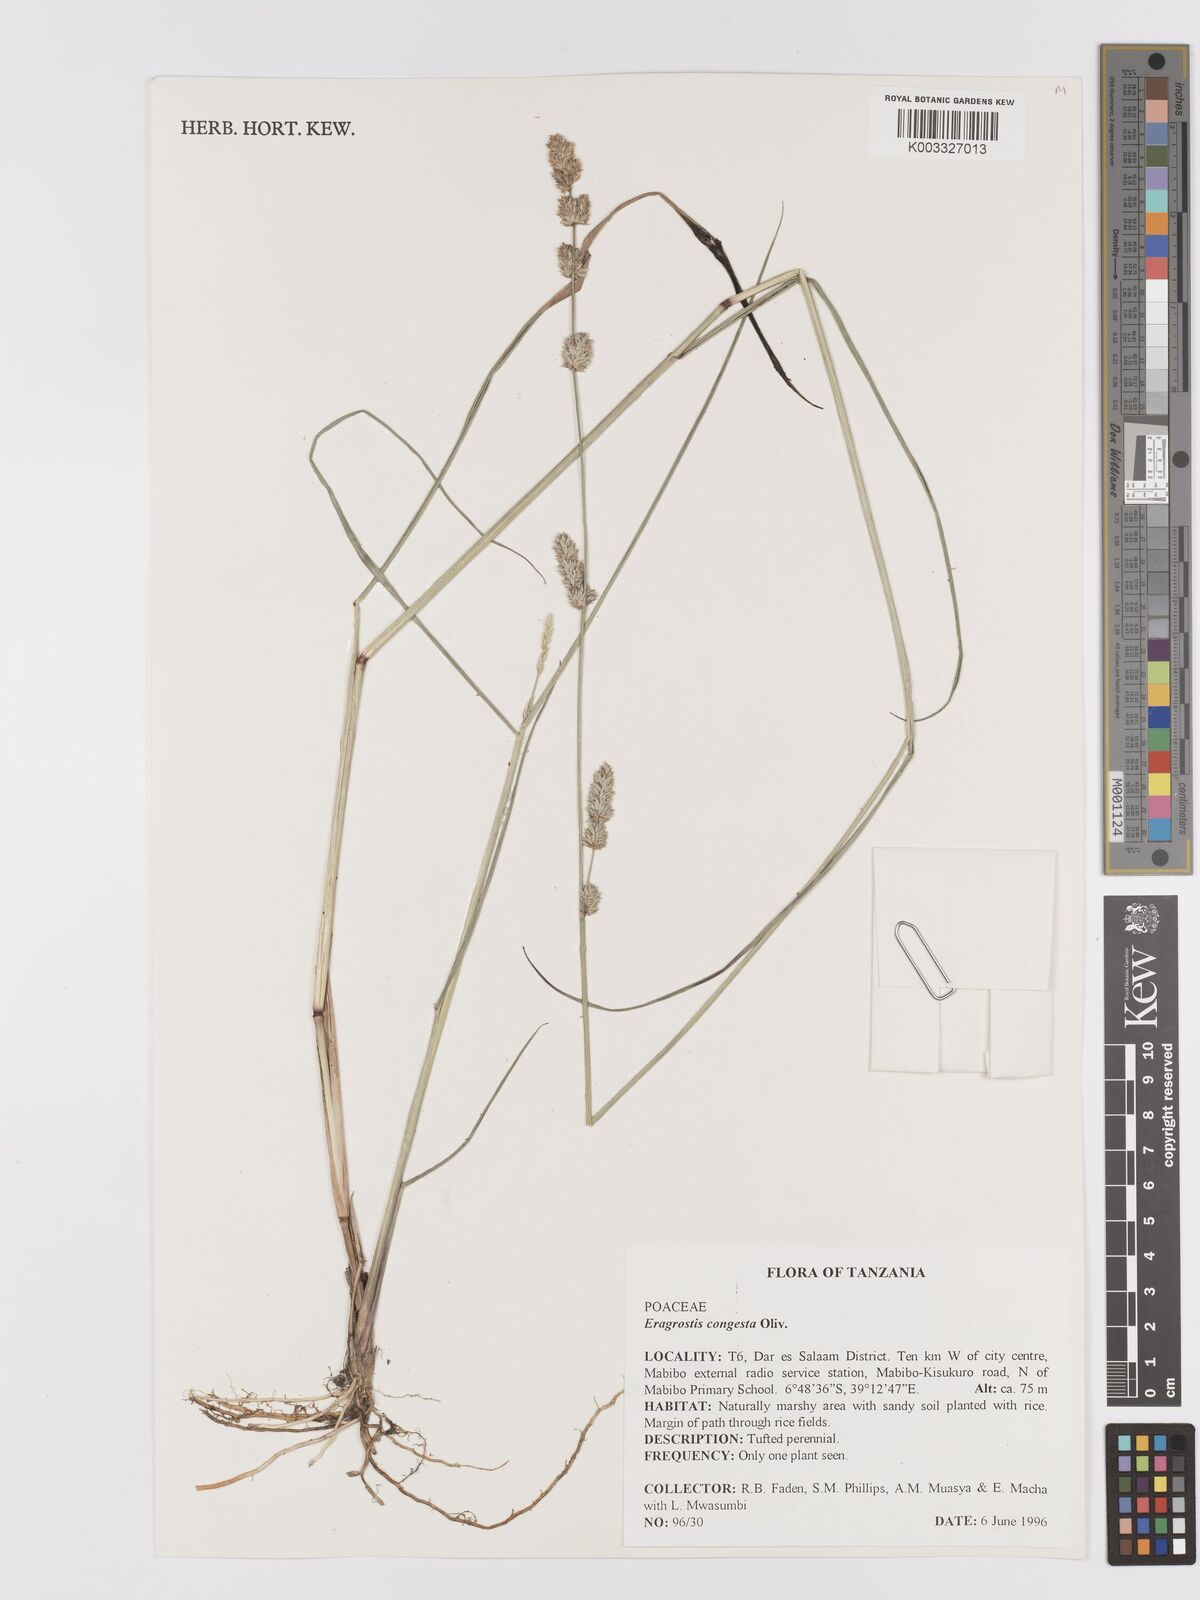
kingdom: Plantae
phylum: Tracheophyta
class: Liliopsida
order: Poales
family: Poaceae
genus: Eragrostis
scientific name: Eragrostis congesta
